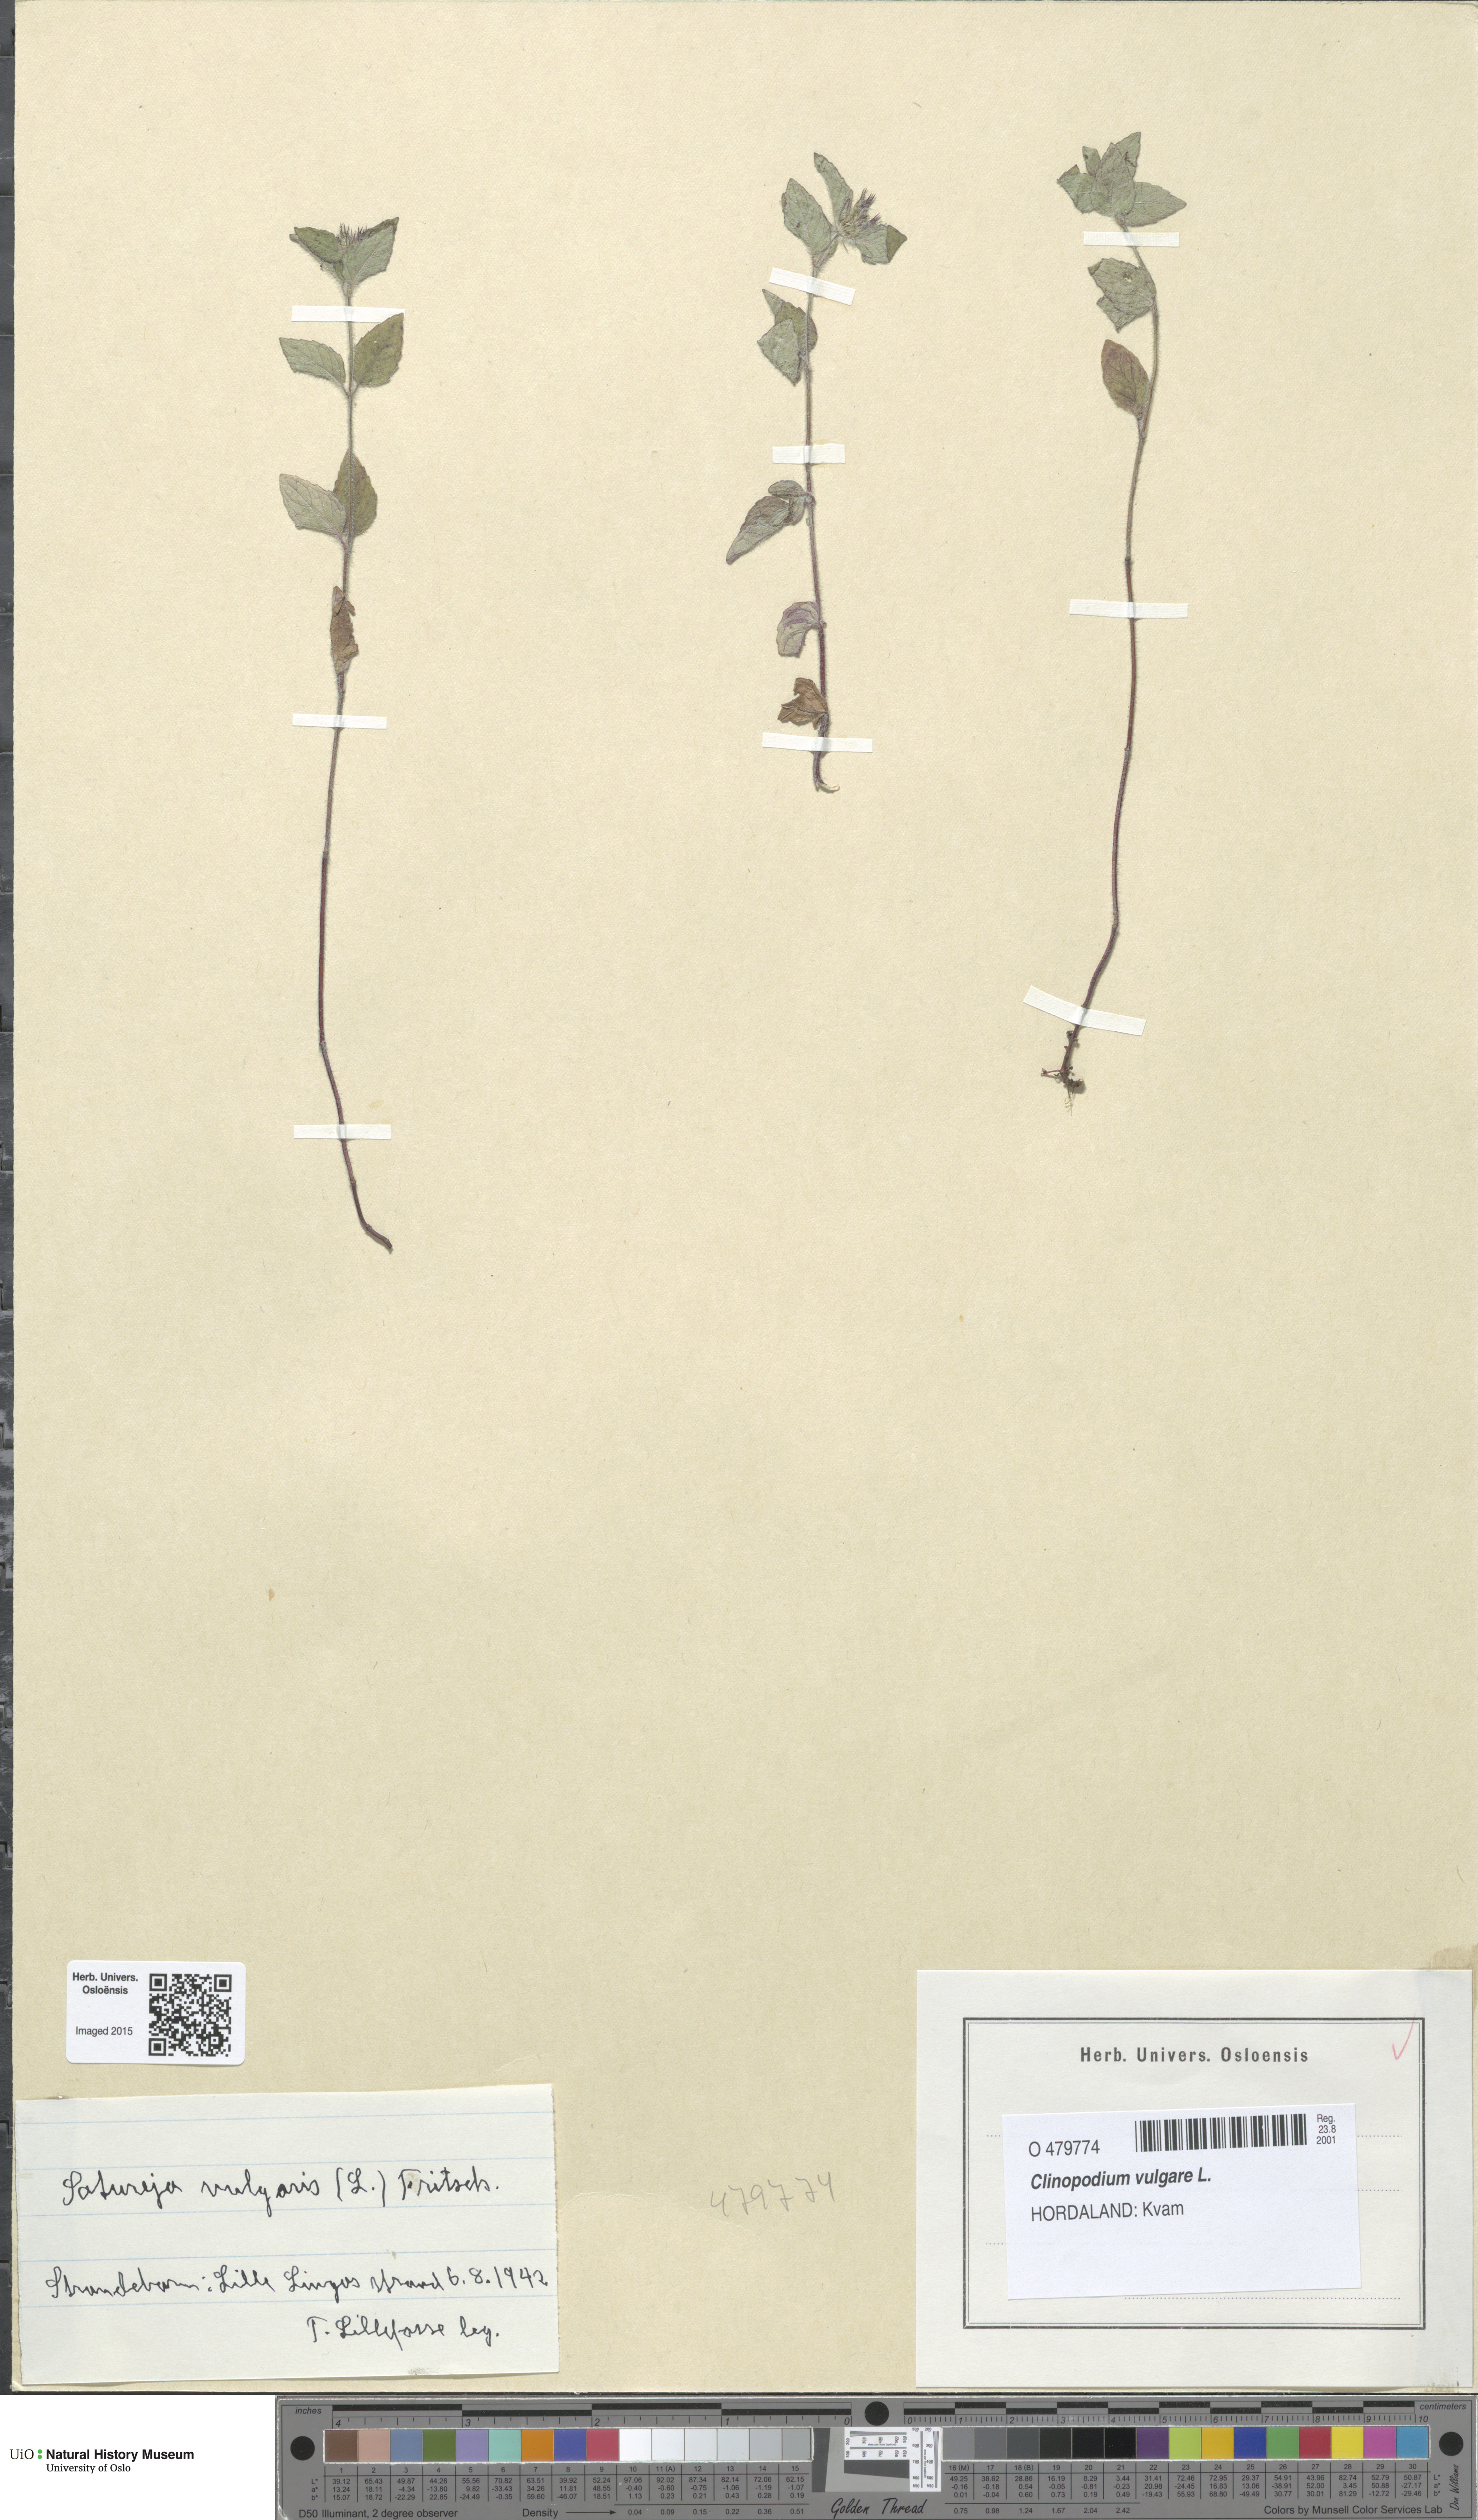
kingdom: Plantae
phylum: Tracheophyta
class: Magnoliopsida
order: Lamiales
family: Lamiaceae
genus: Clinopodium
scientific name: Clinopodium vulgare
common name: Wild basil
